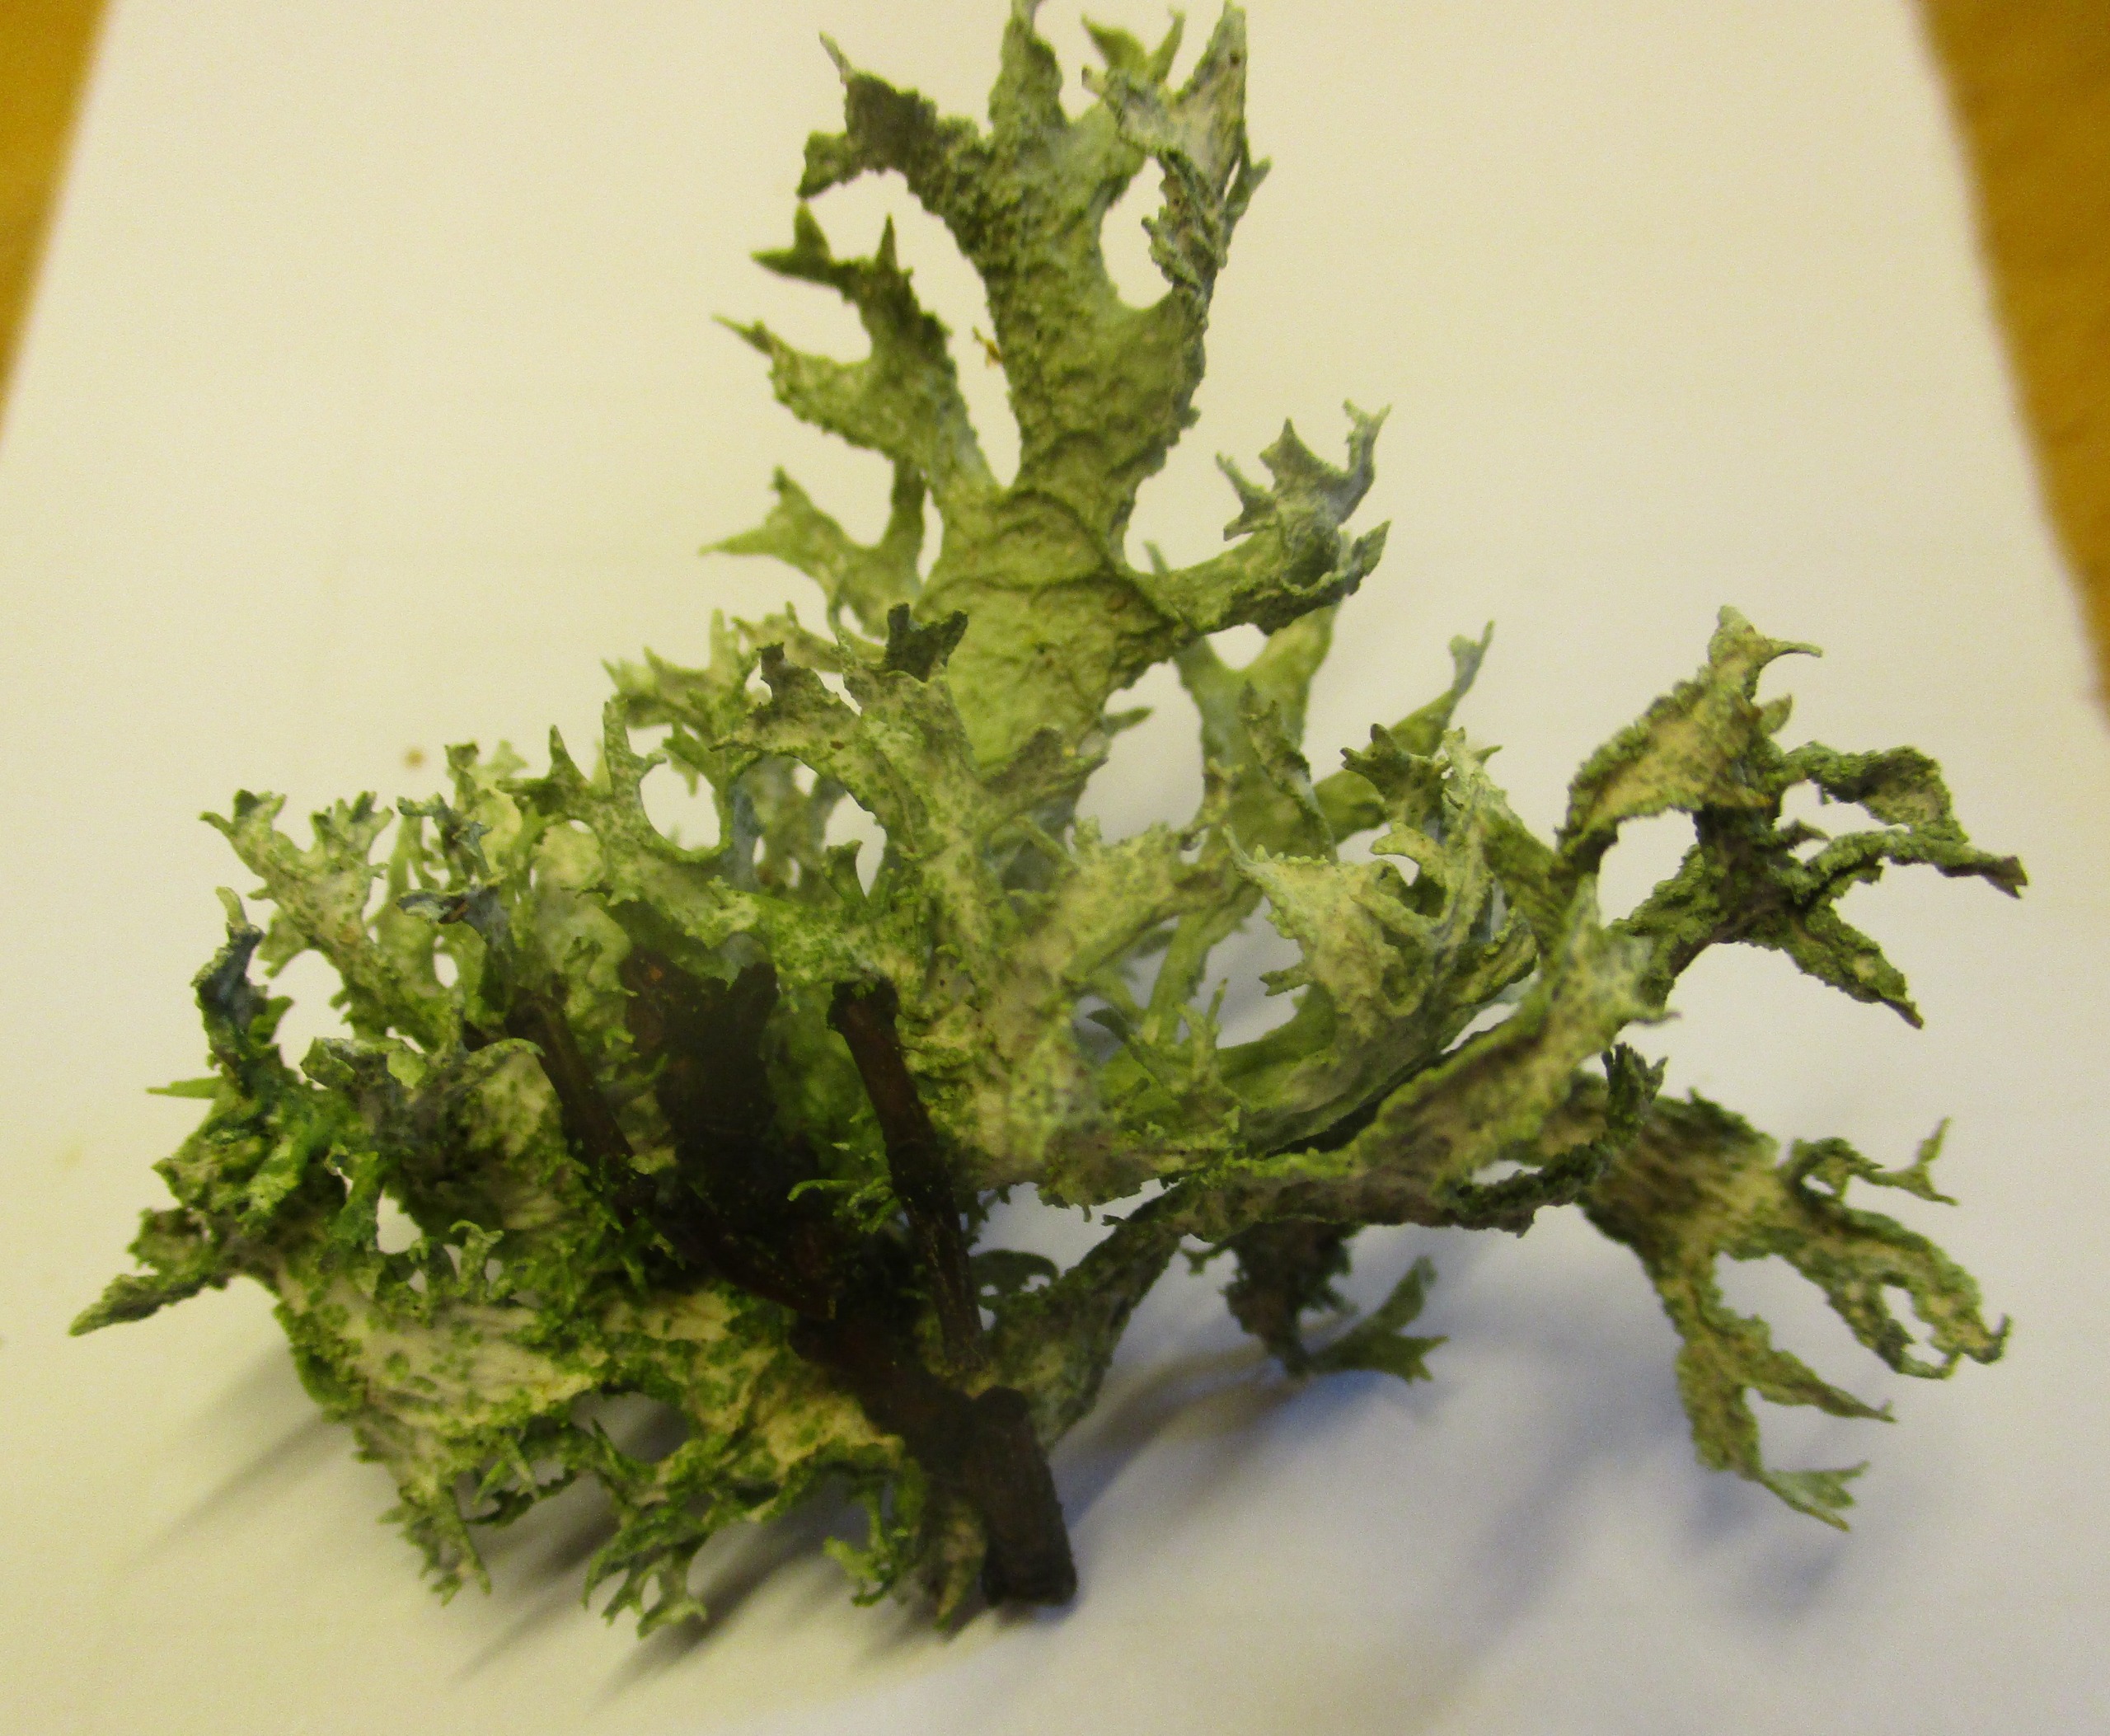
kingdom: Fungi
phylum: Ascomycota
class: Lecanoromycetes
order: Lecanorales
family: Parmeliaceae
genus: Evernia
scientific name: Evernia prunastri
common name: Almindelig slåenlav
